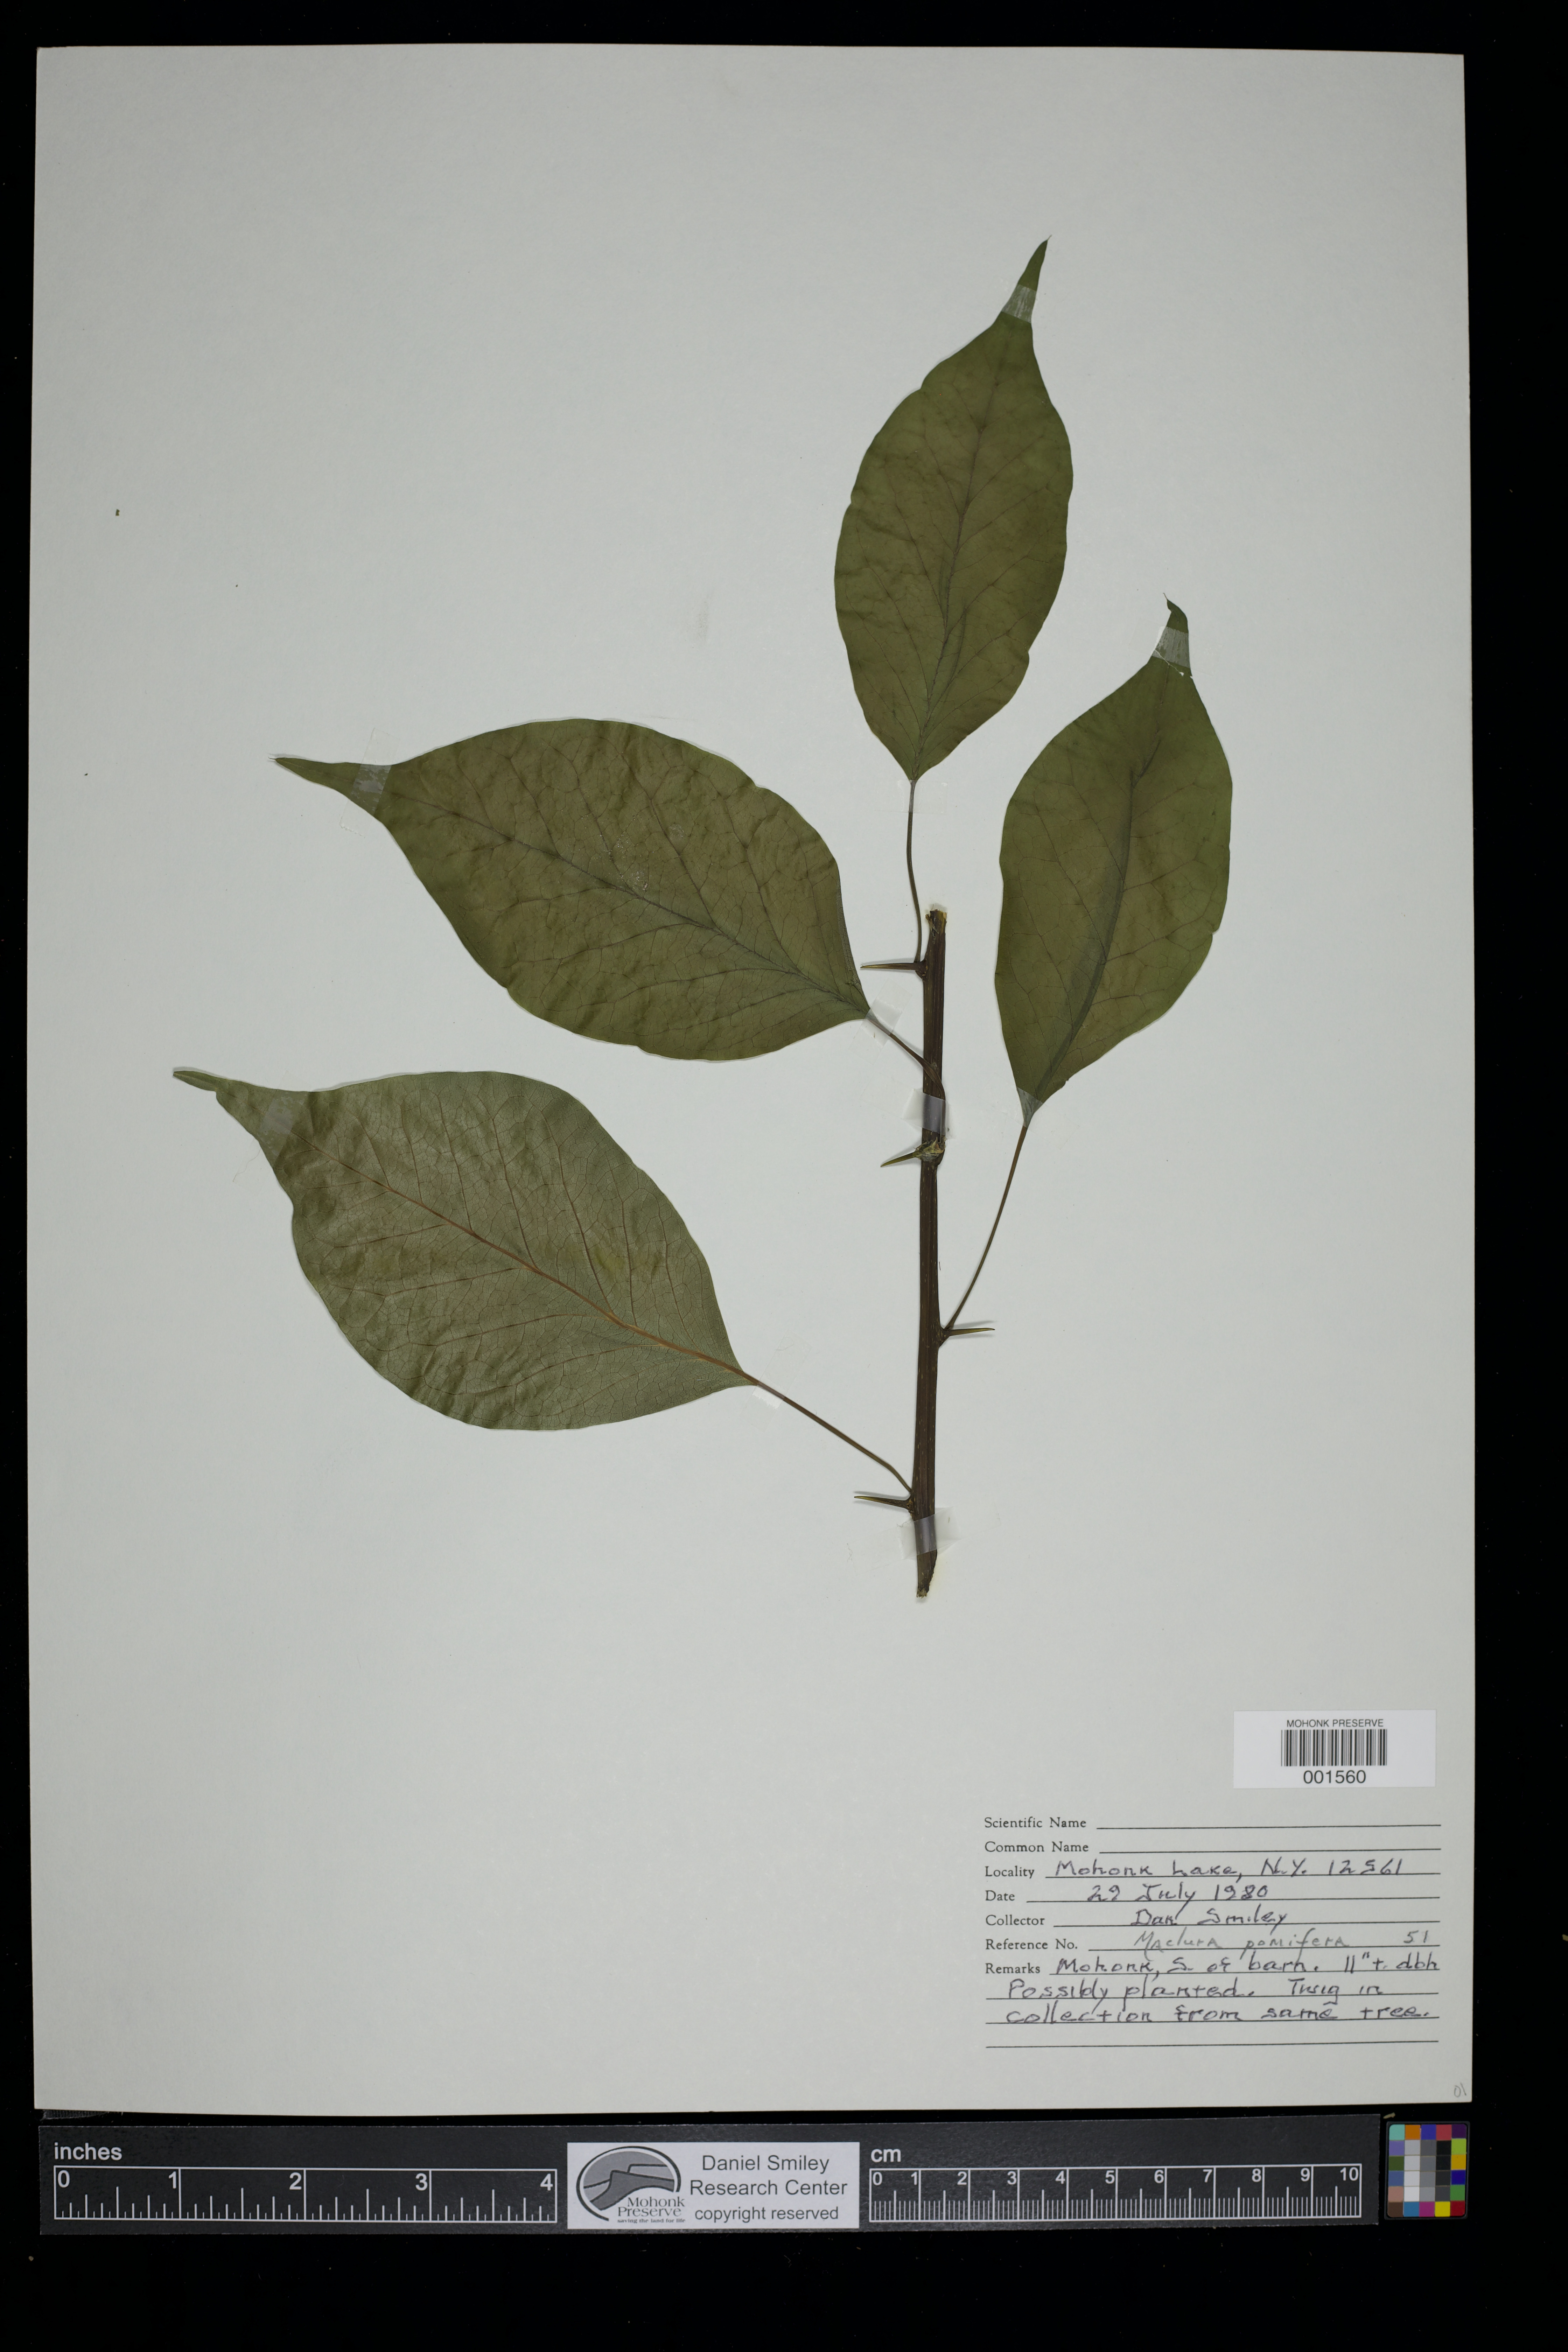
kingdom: Plantae
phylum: Tracheophyta
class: Magnoliopsida
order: Rosales
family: Moraceae
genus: Maclura
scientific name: Maclura pomifera
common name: Osage-orange
